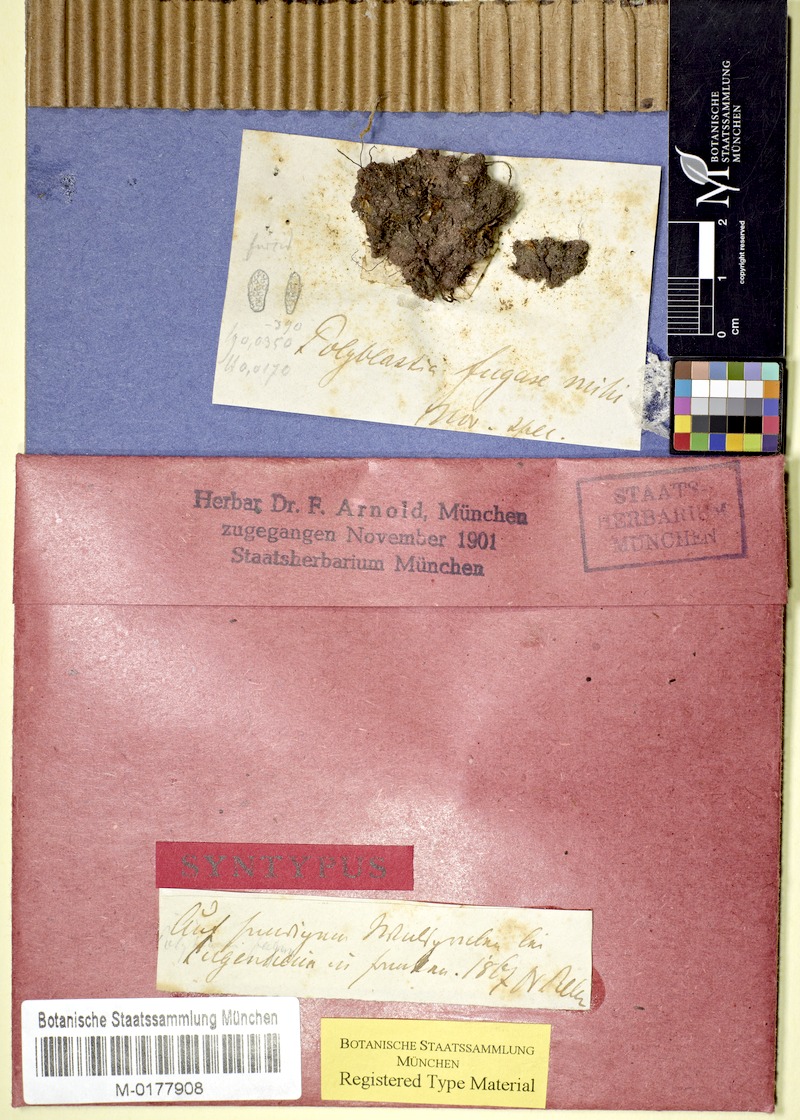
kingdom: Fungi
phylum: Ascomycota
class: Eurotiomycetes
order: Verrucariales
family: Verrucariaceae
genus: Polyblastia
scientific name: Polyblastia
